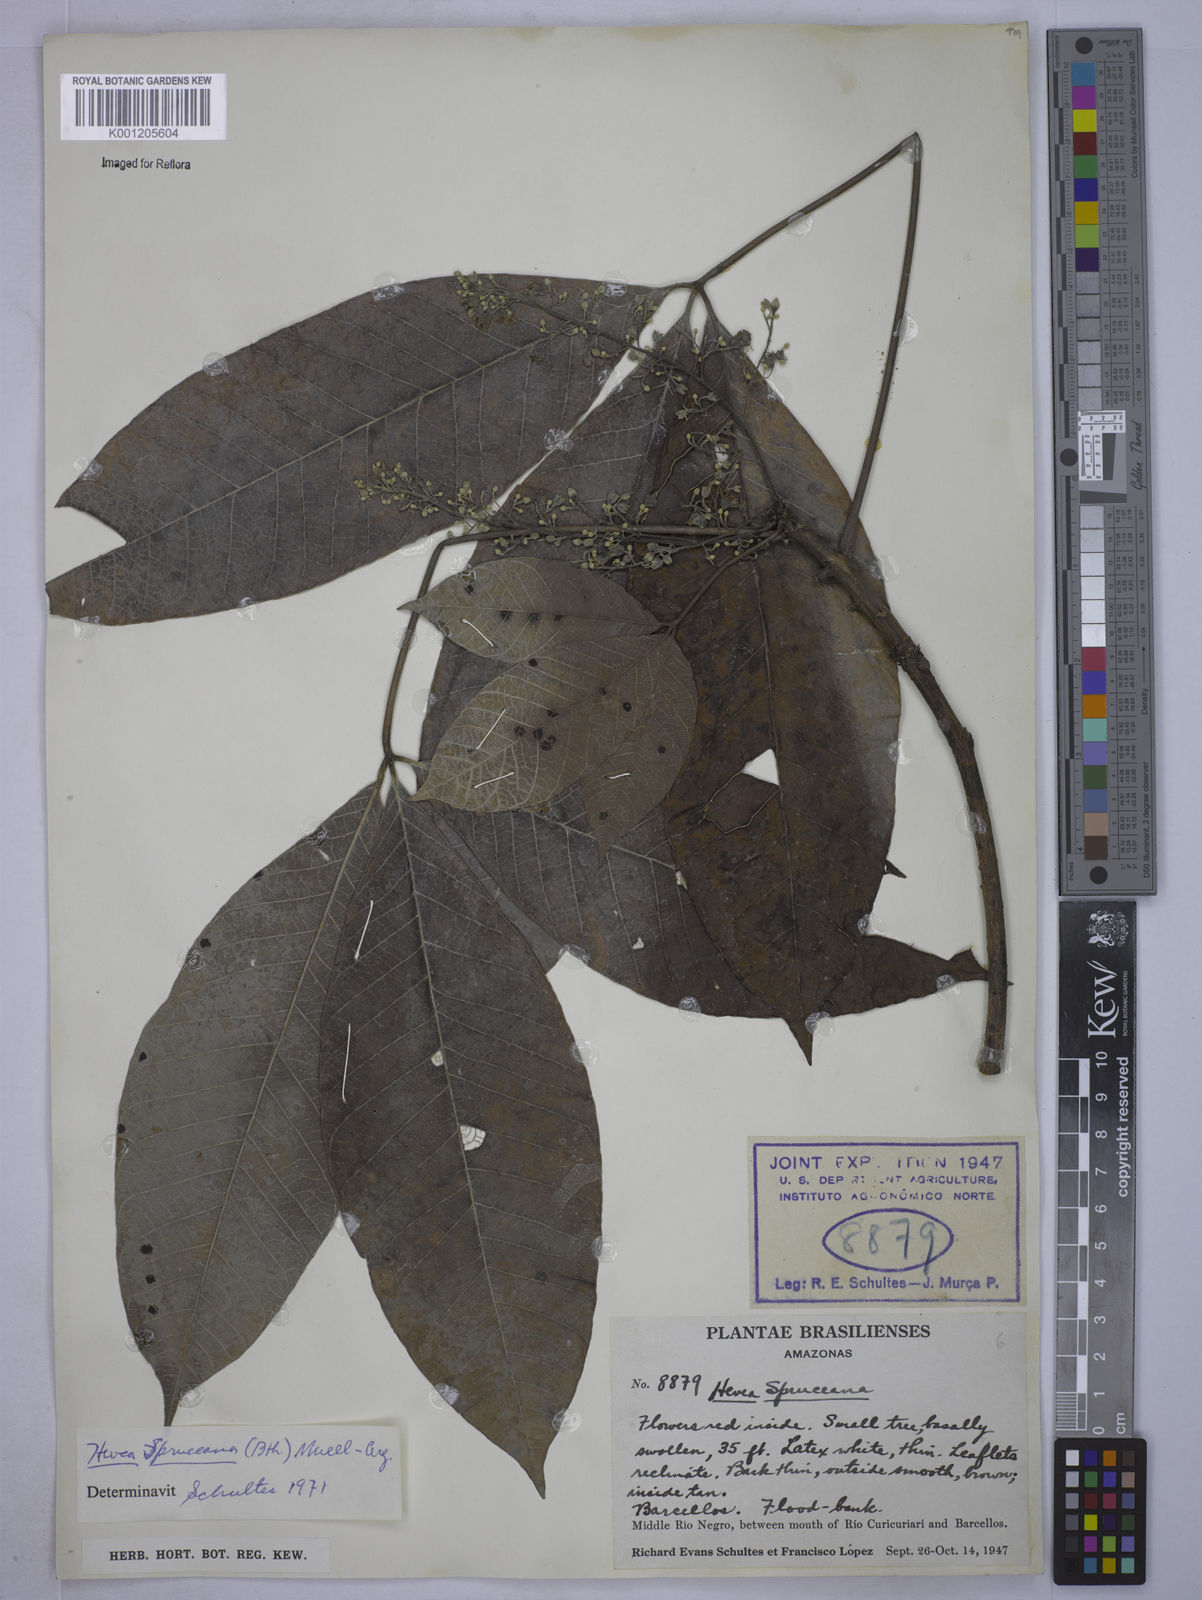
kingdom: Plantae
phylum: Tracheophyta
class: Magnoliopsida
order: Malpighiales
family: Euphorbiaceae
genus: Hevea
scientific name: Hevea
